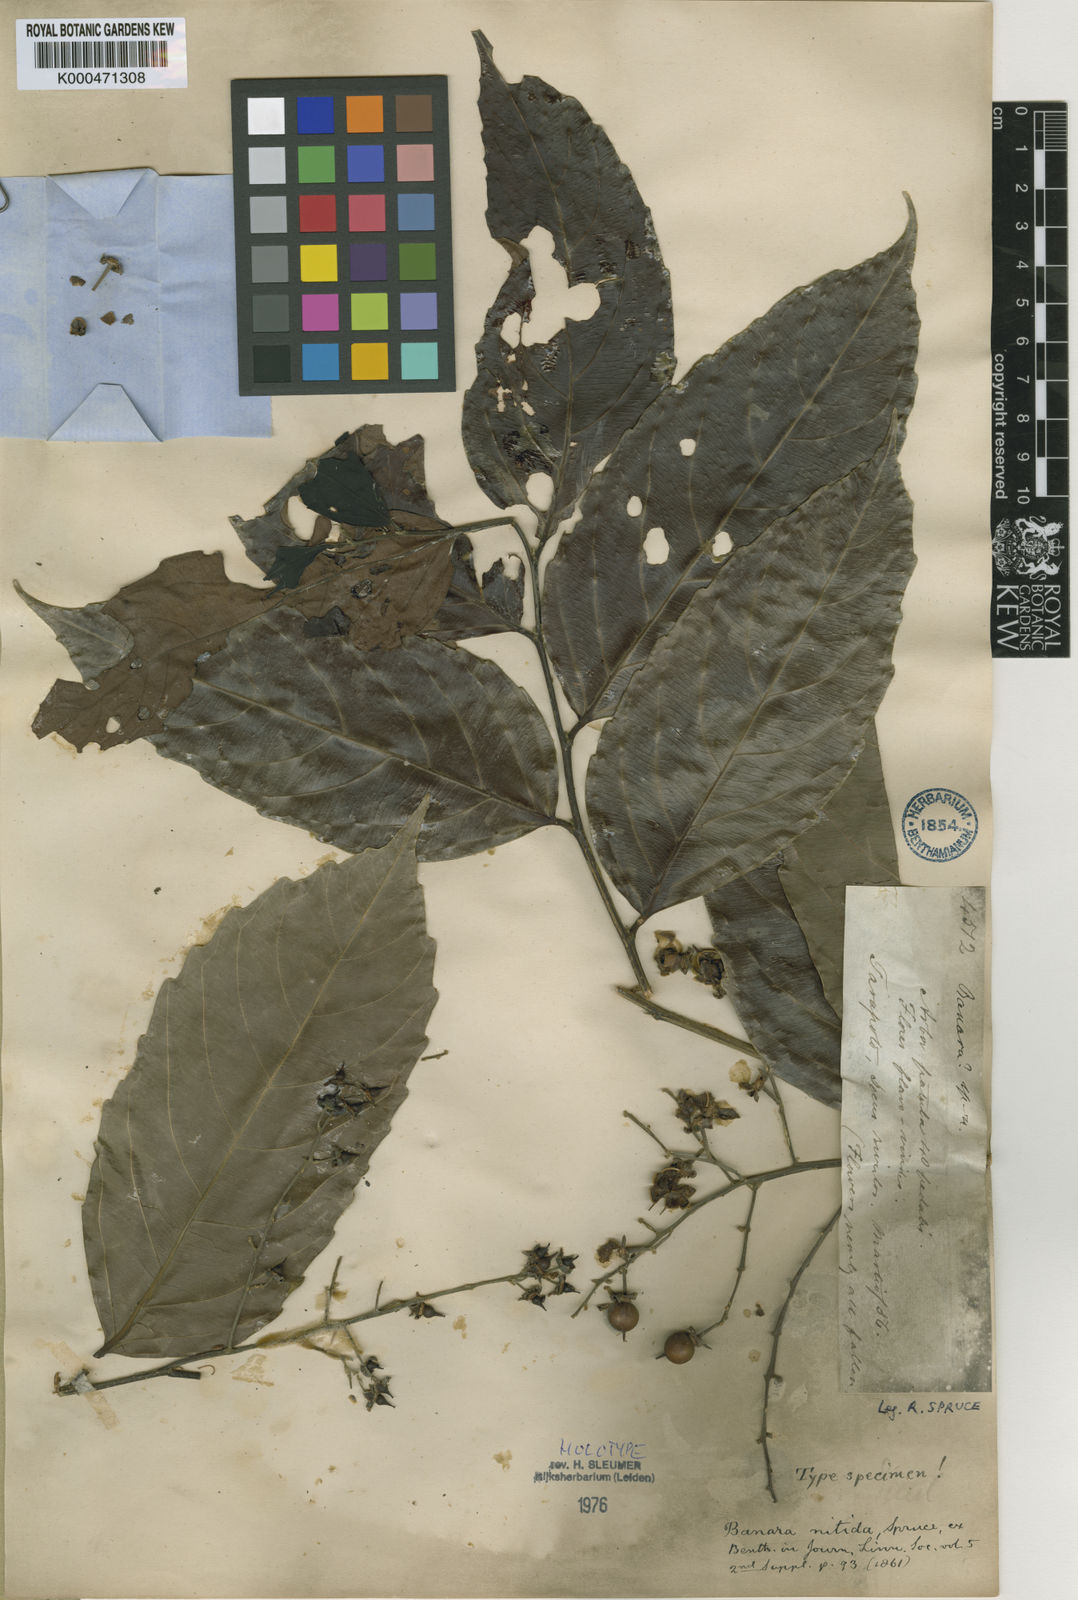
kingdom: Plantae
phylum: Tracheophyta
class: Magnoliopsida
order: Malpighiales
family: Salicaceae
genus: Banara
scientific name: Banara nitida
